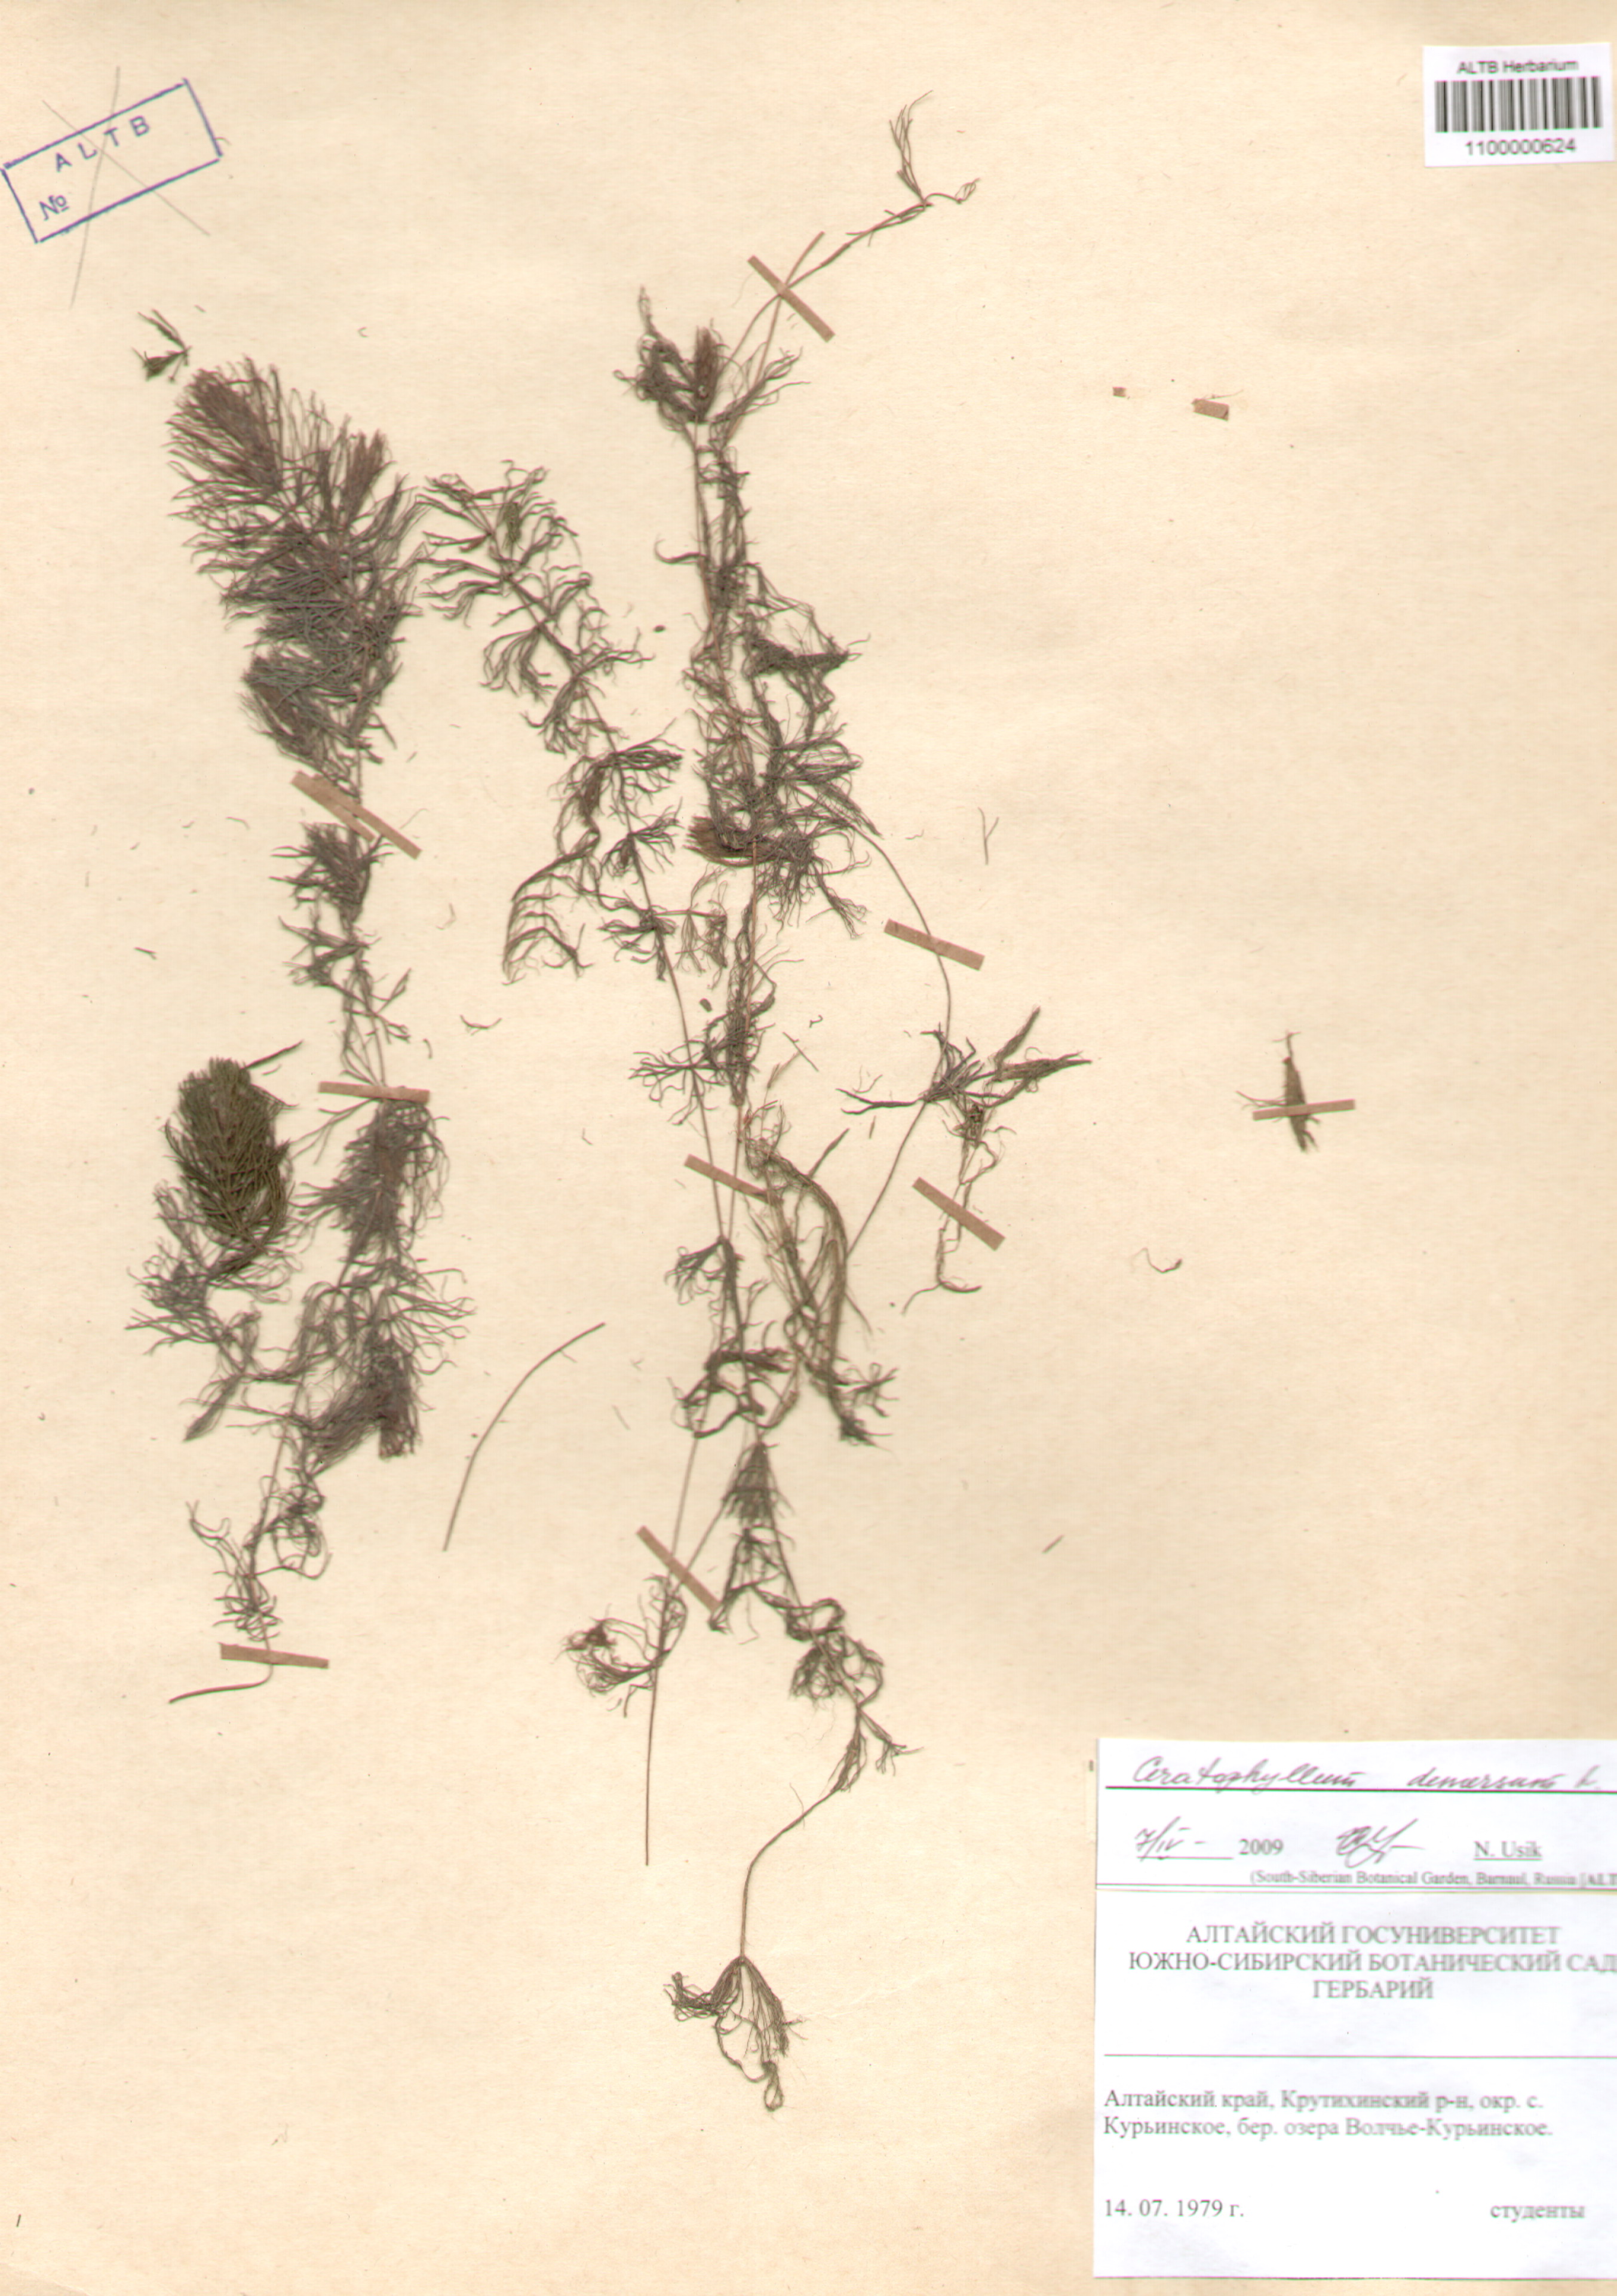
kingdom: Plantae
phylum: Tracheophyta
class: Magnoliopsida
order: Ceratophyllales
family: Ceratophyllaceae
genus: Ceratophyllum
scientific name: Ceratophyllum demersum
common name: Rigid hornwort
